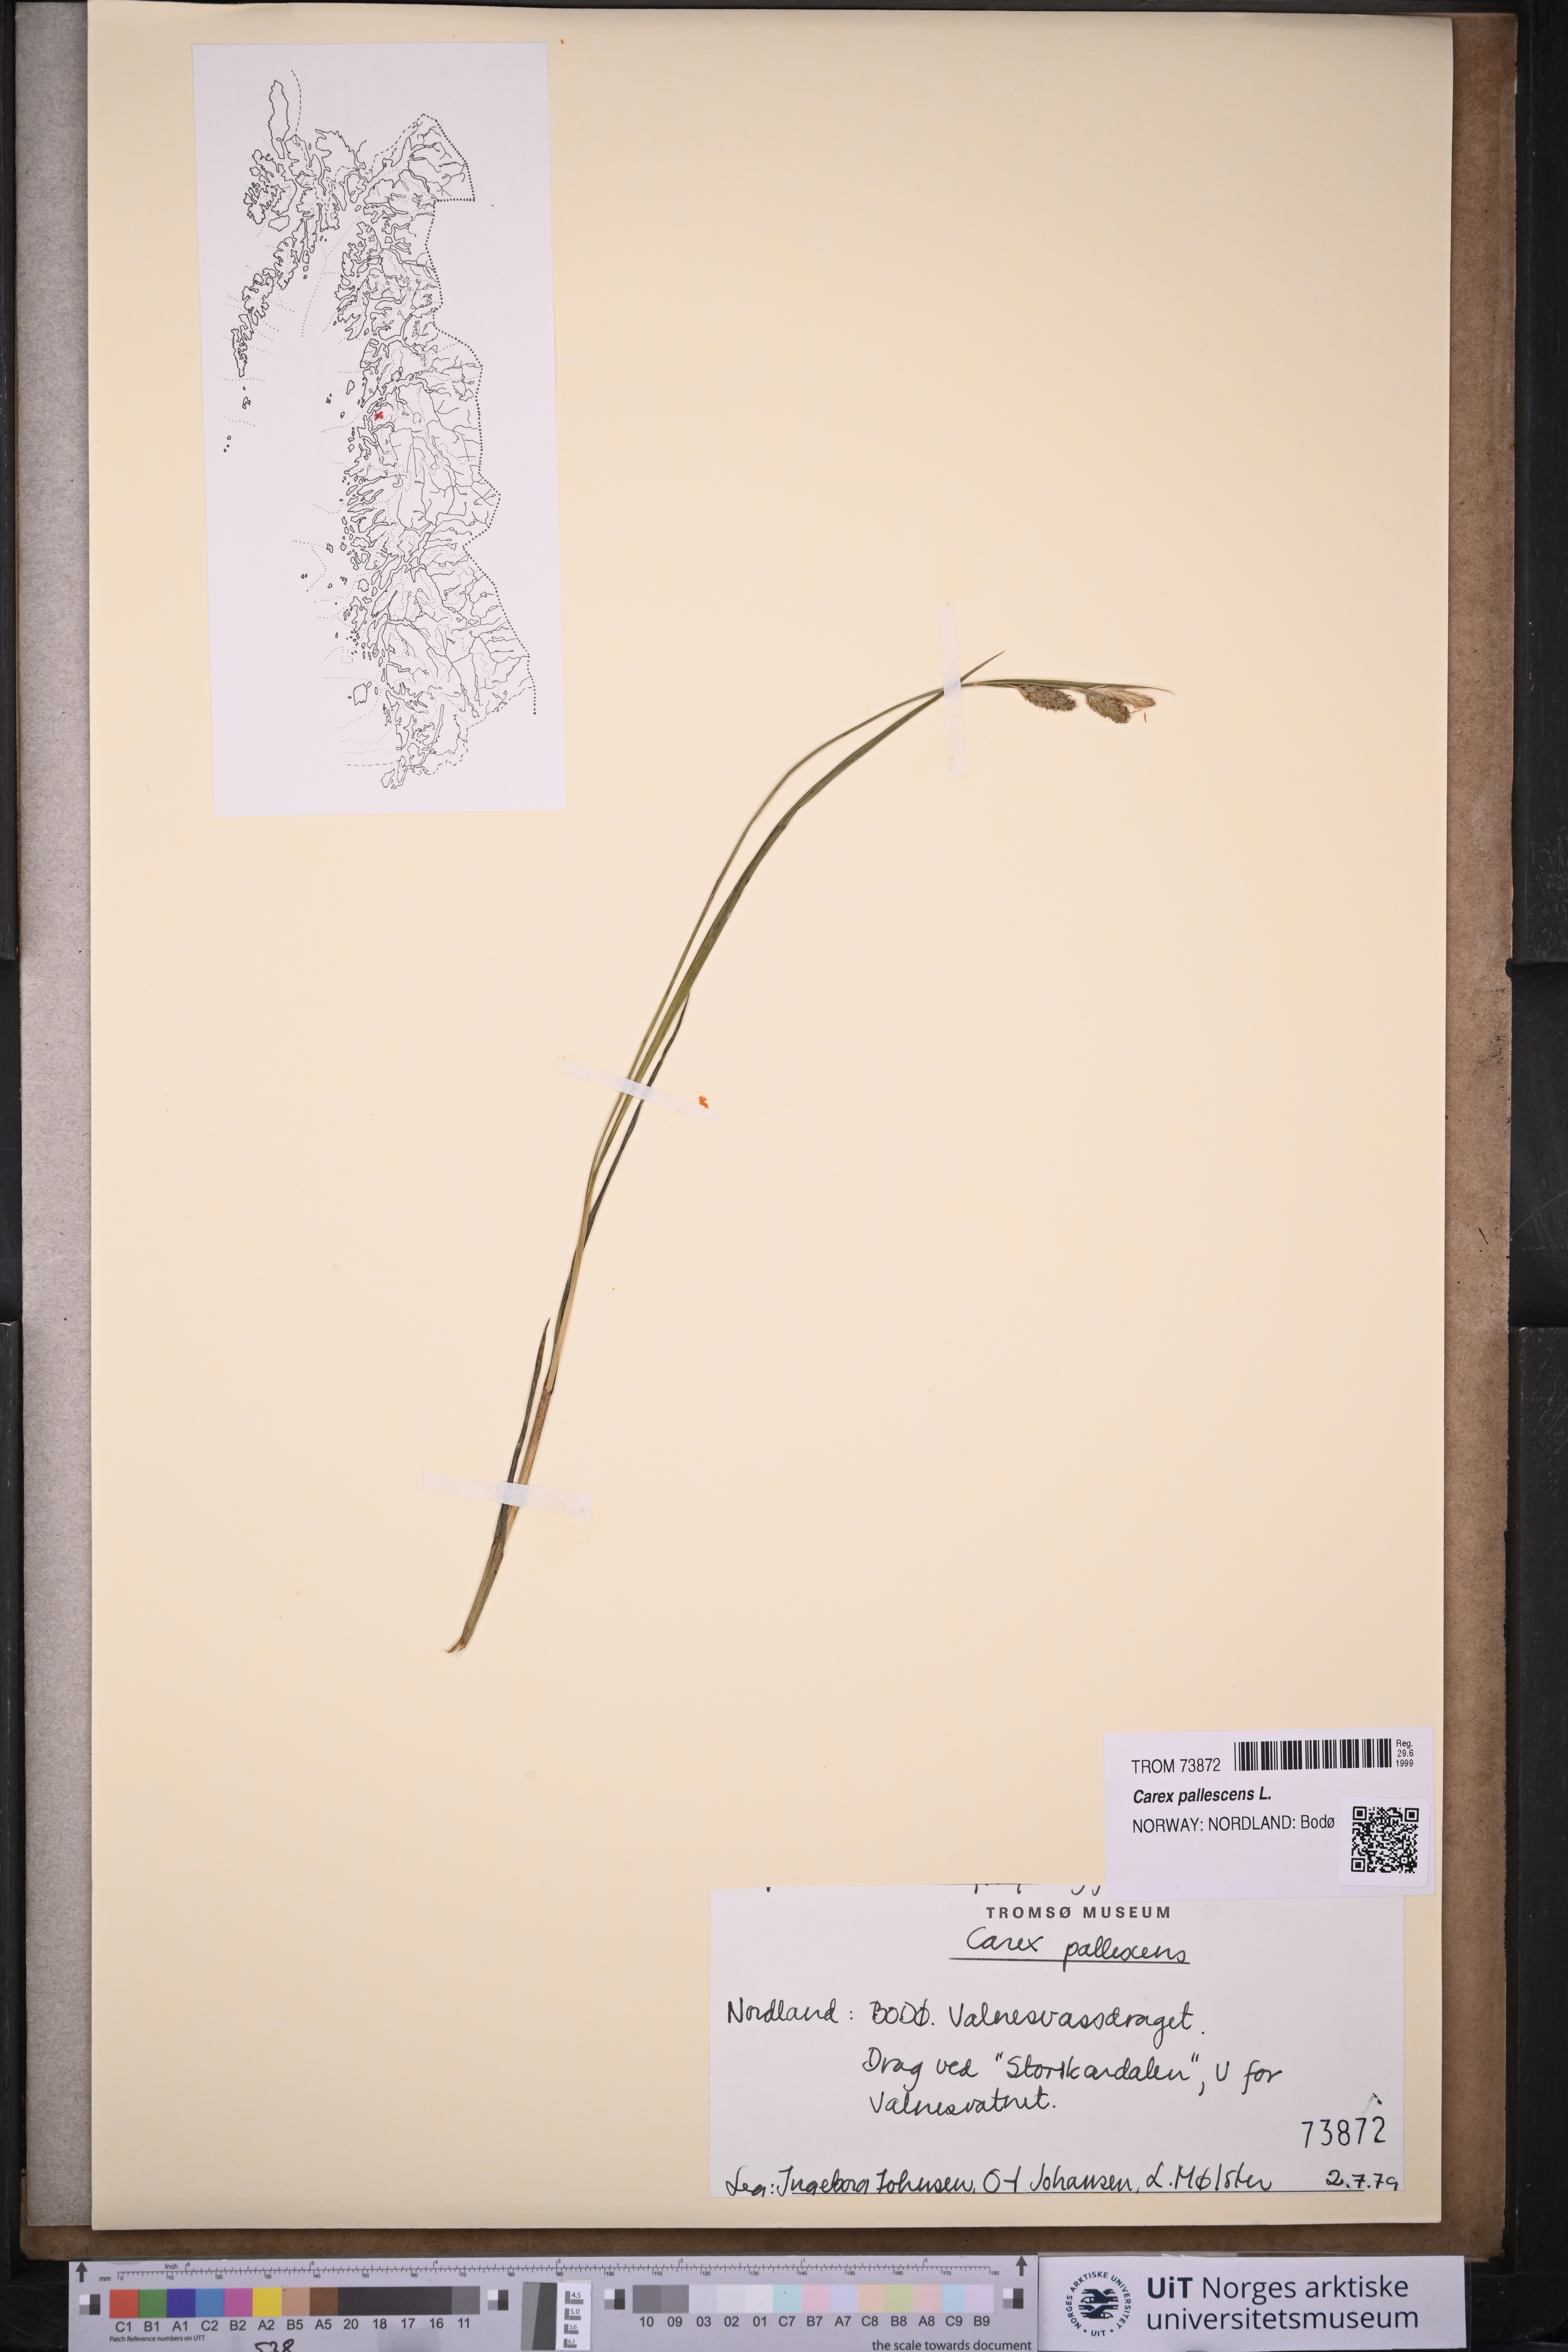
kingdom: Plantae
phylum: Tracheophyta
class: Liliopsida
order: Poales
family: Cyperaceae
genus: Carex
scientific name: Carex pallescens
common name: Pale sedge
